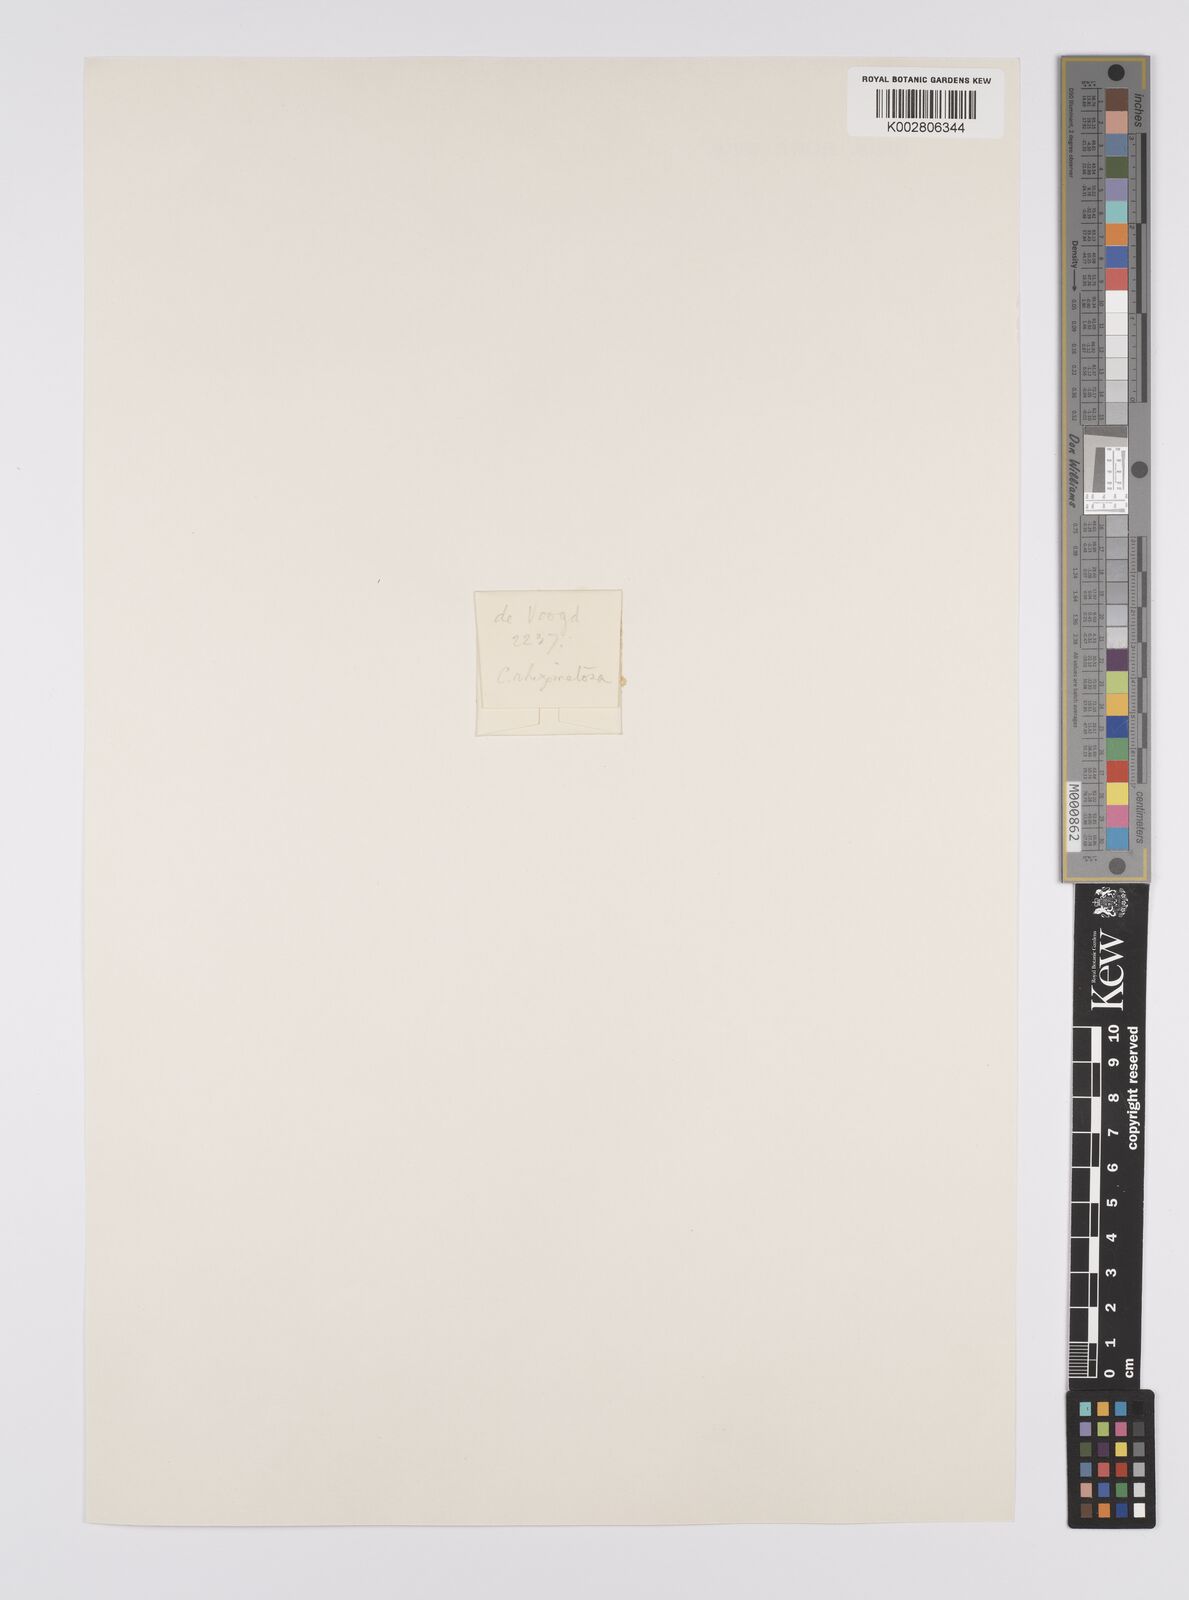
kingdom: Plantae
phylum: Tracheophyta
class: Liliopsida
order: Poales
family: Cyperaceae
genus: Carex
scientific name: Carex oligostachya
